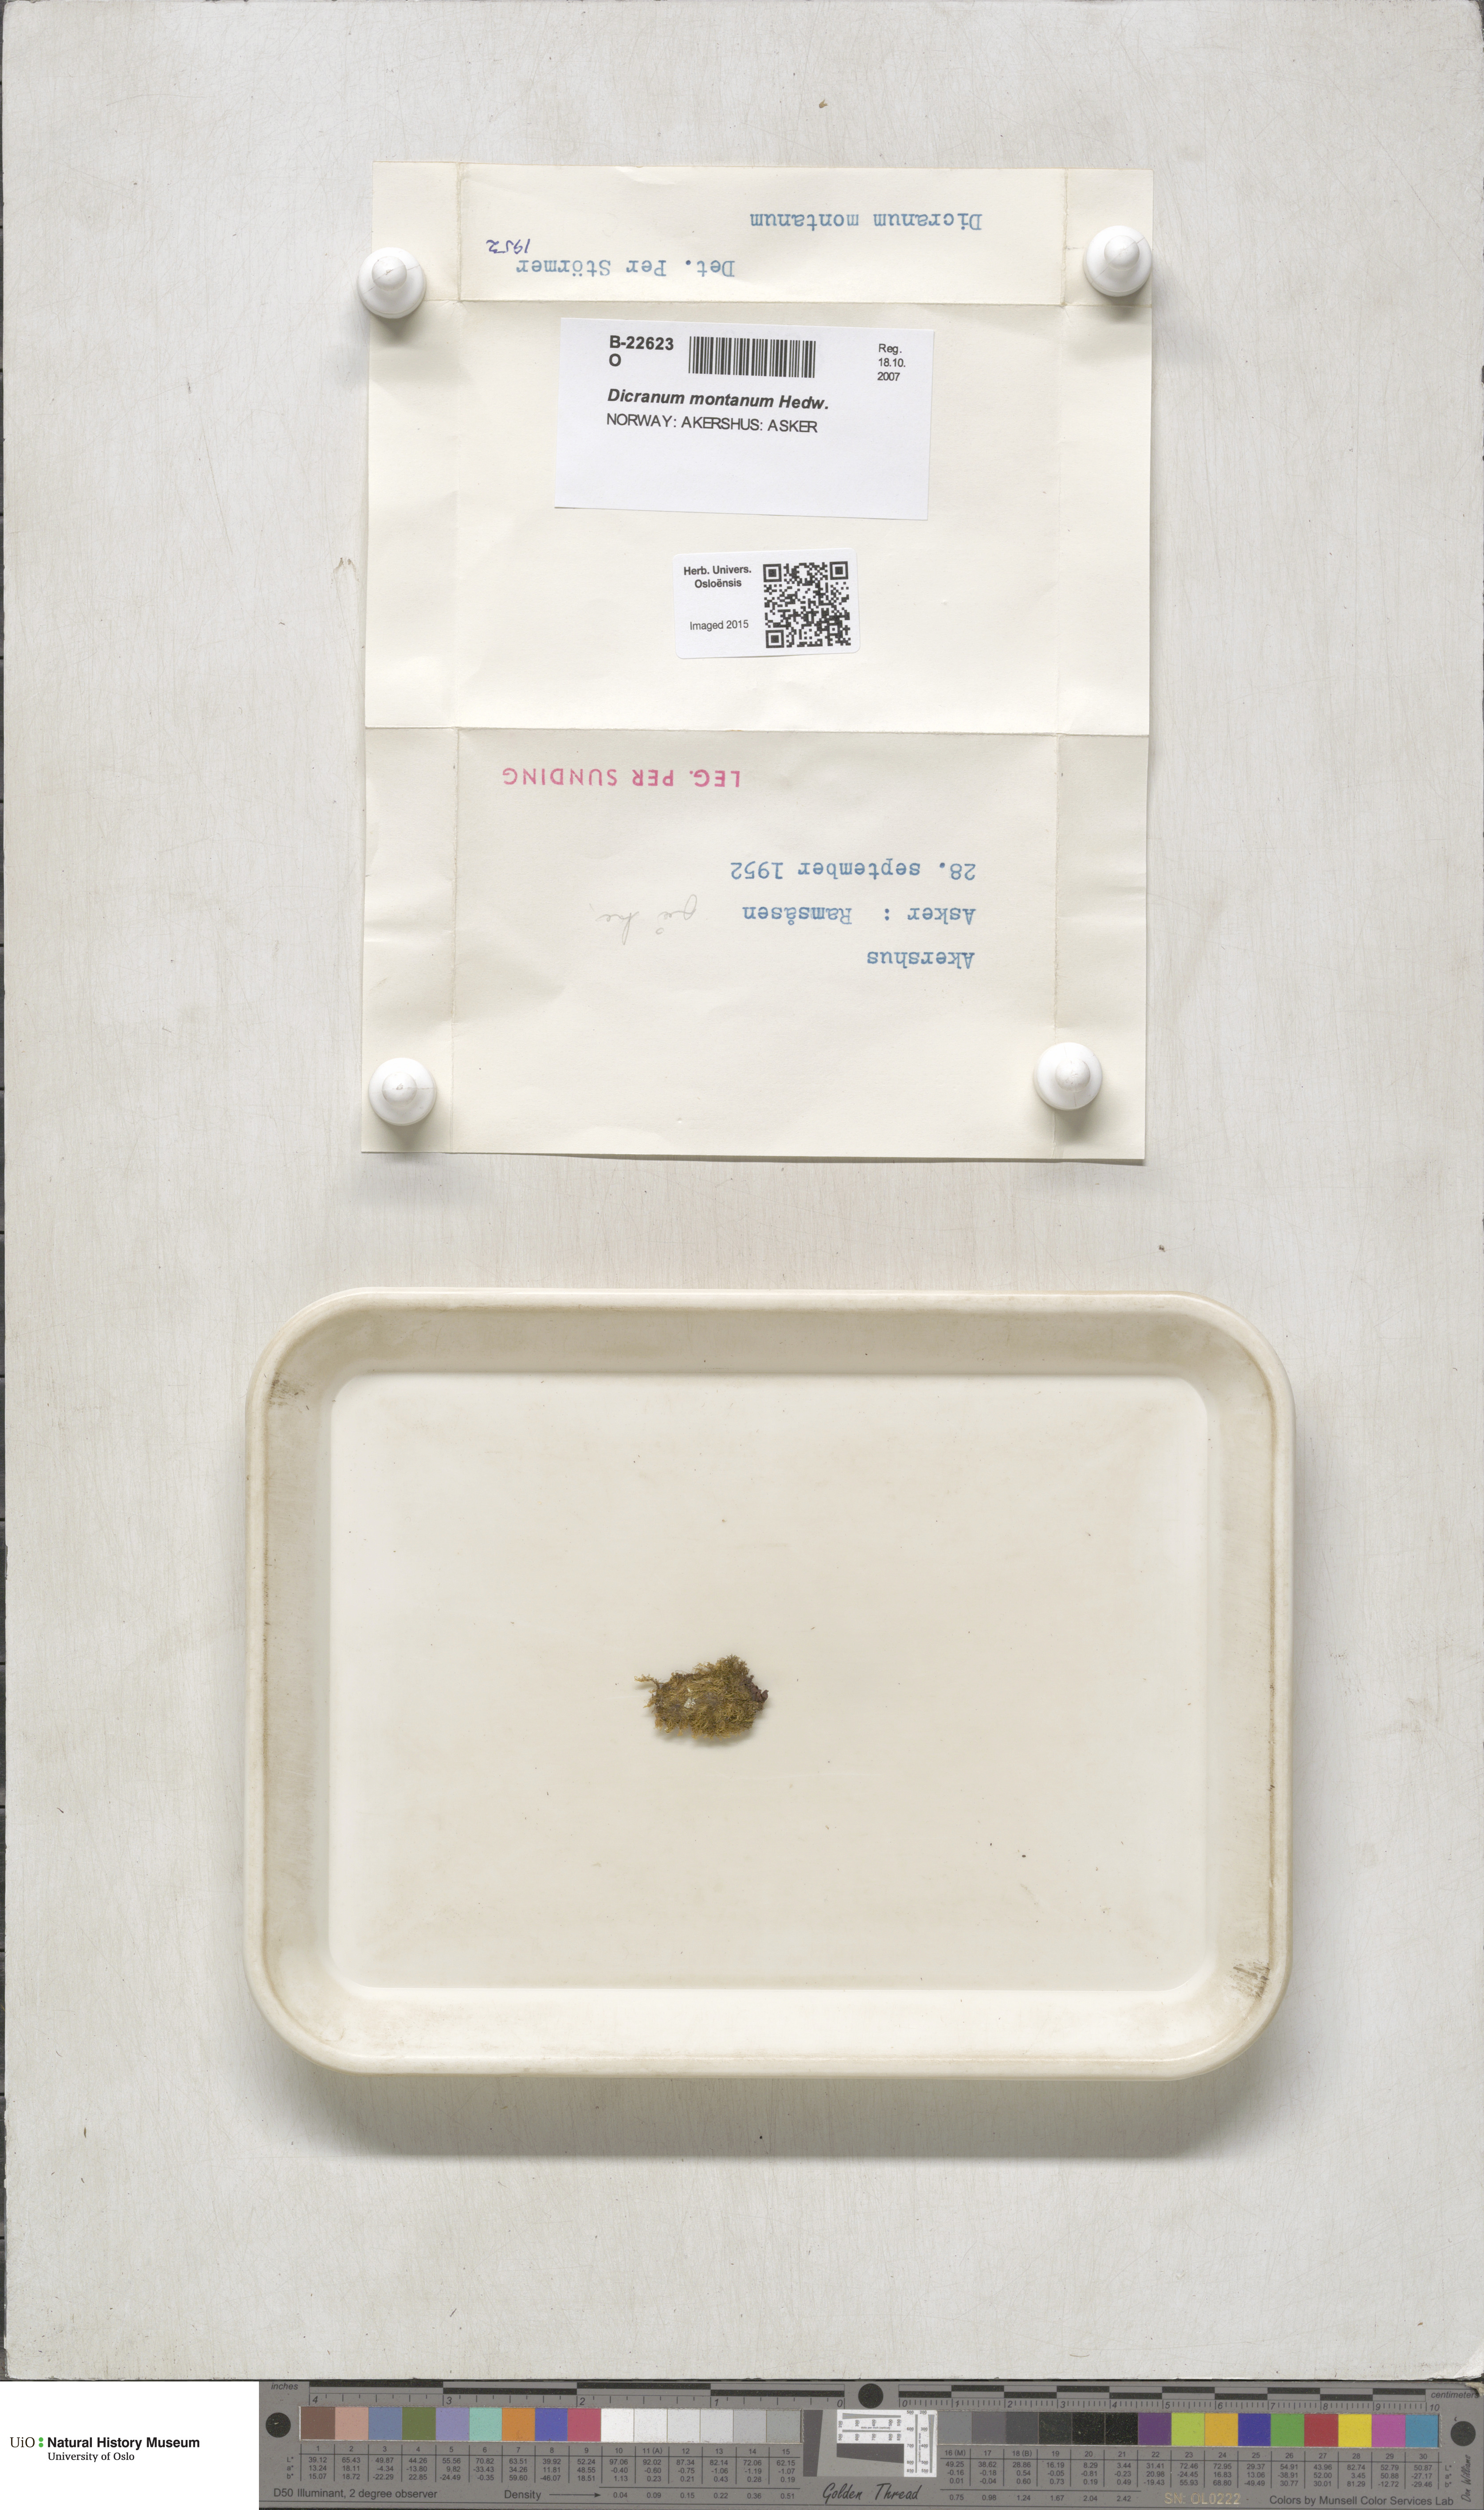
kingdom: Plantae
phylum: Bryophyta
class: Bryopsida
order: Dicranales
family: Dicranaceae
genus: Orthodicranum
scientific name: Orthodicranum montanum
